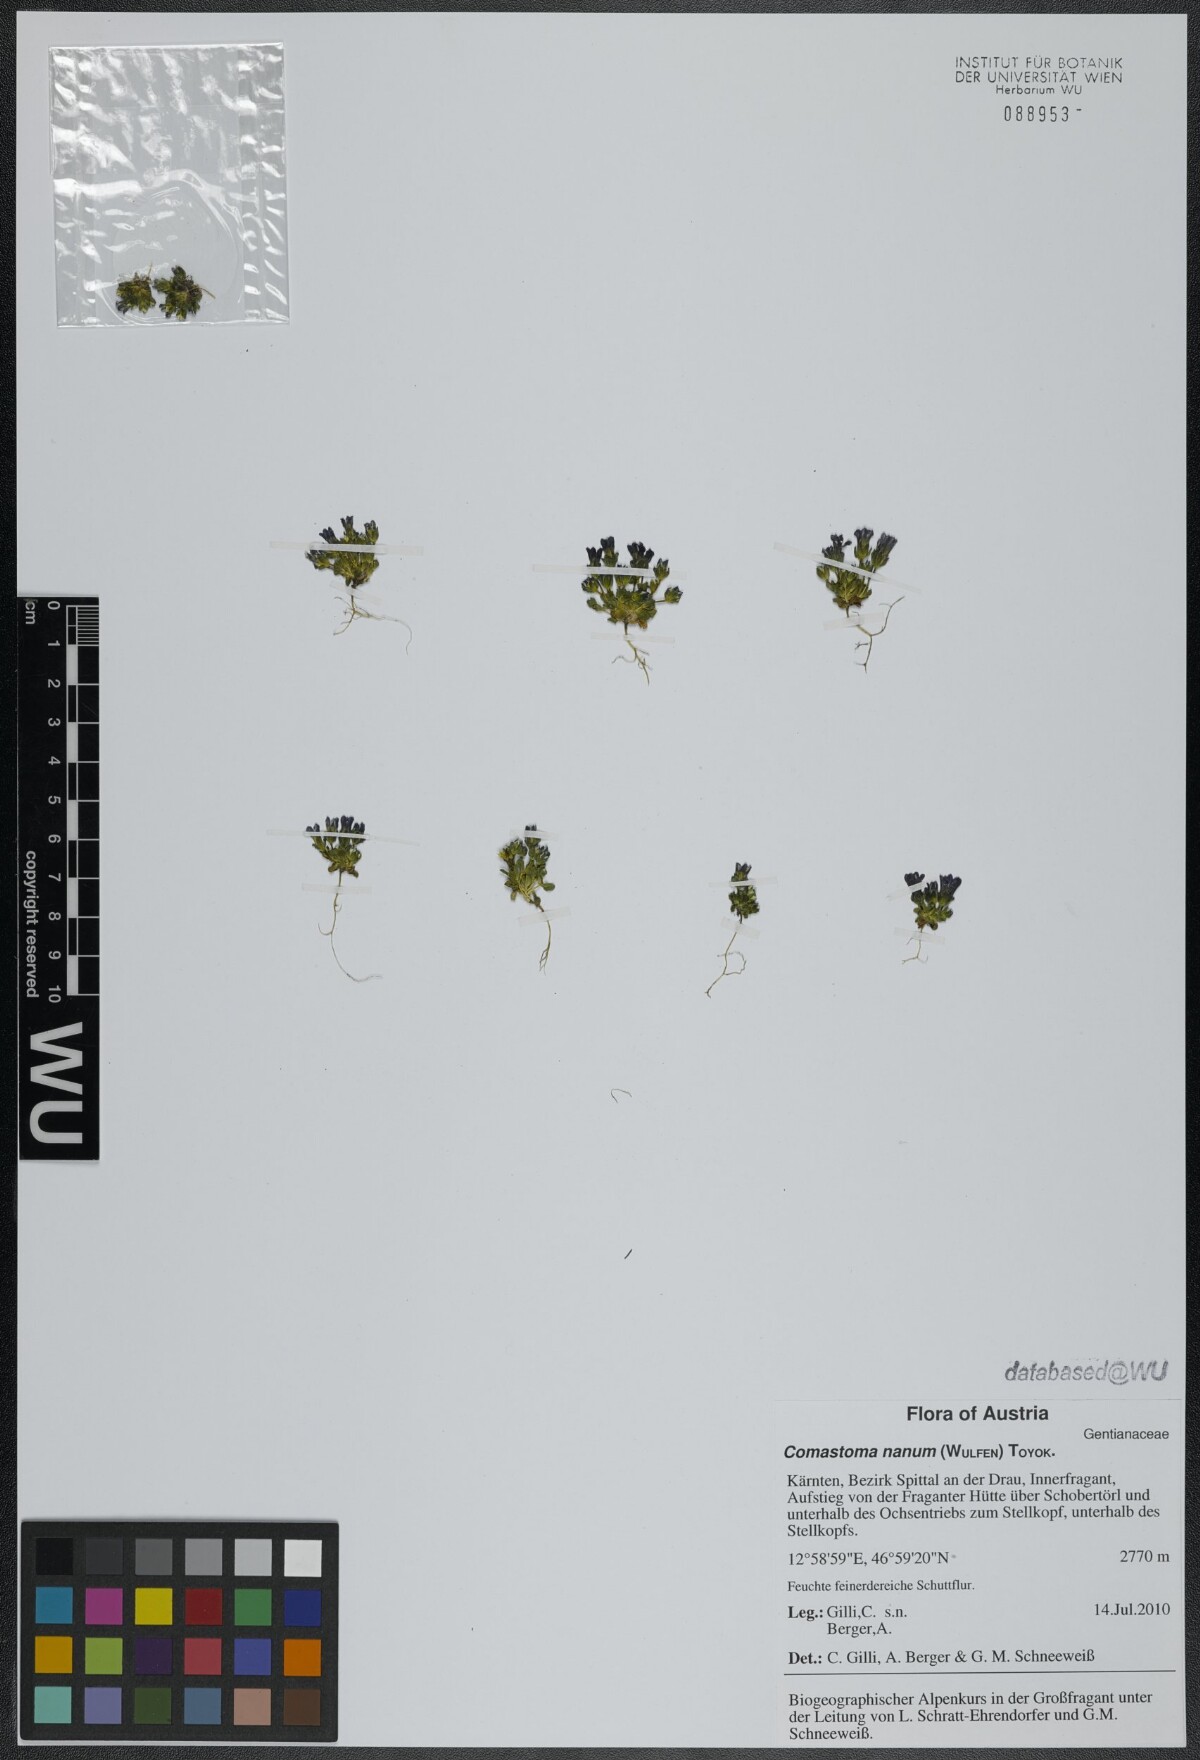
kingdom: Plantae
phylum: Tracheophyta
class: Magnoliopsida
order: Gentianales
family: Gentianaceae
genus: Comastoma
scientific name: Comastoma nanum
